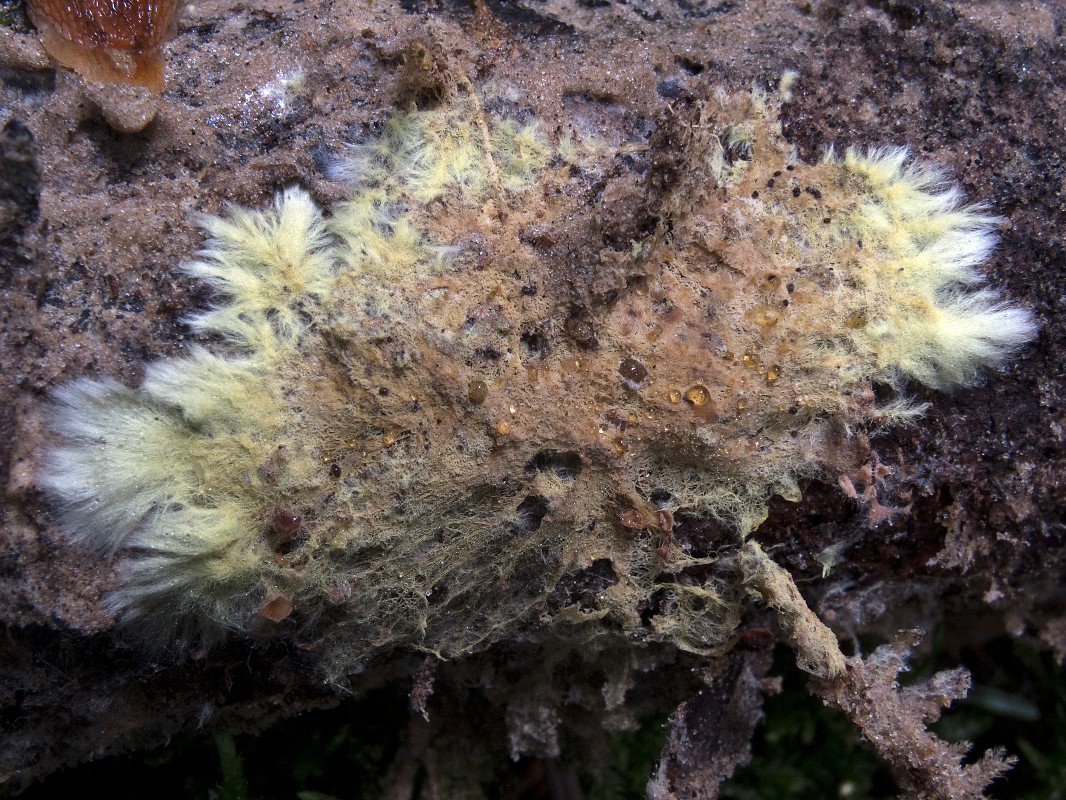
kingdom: Fungi
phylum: Basidiomycota
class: Agaricomycetes
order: Russulales
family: Xenasmataceae
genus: Xenasmatella
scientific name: Xenasmatella vaga
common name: svovl-strenghinde
